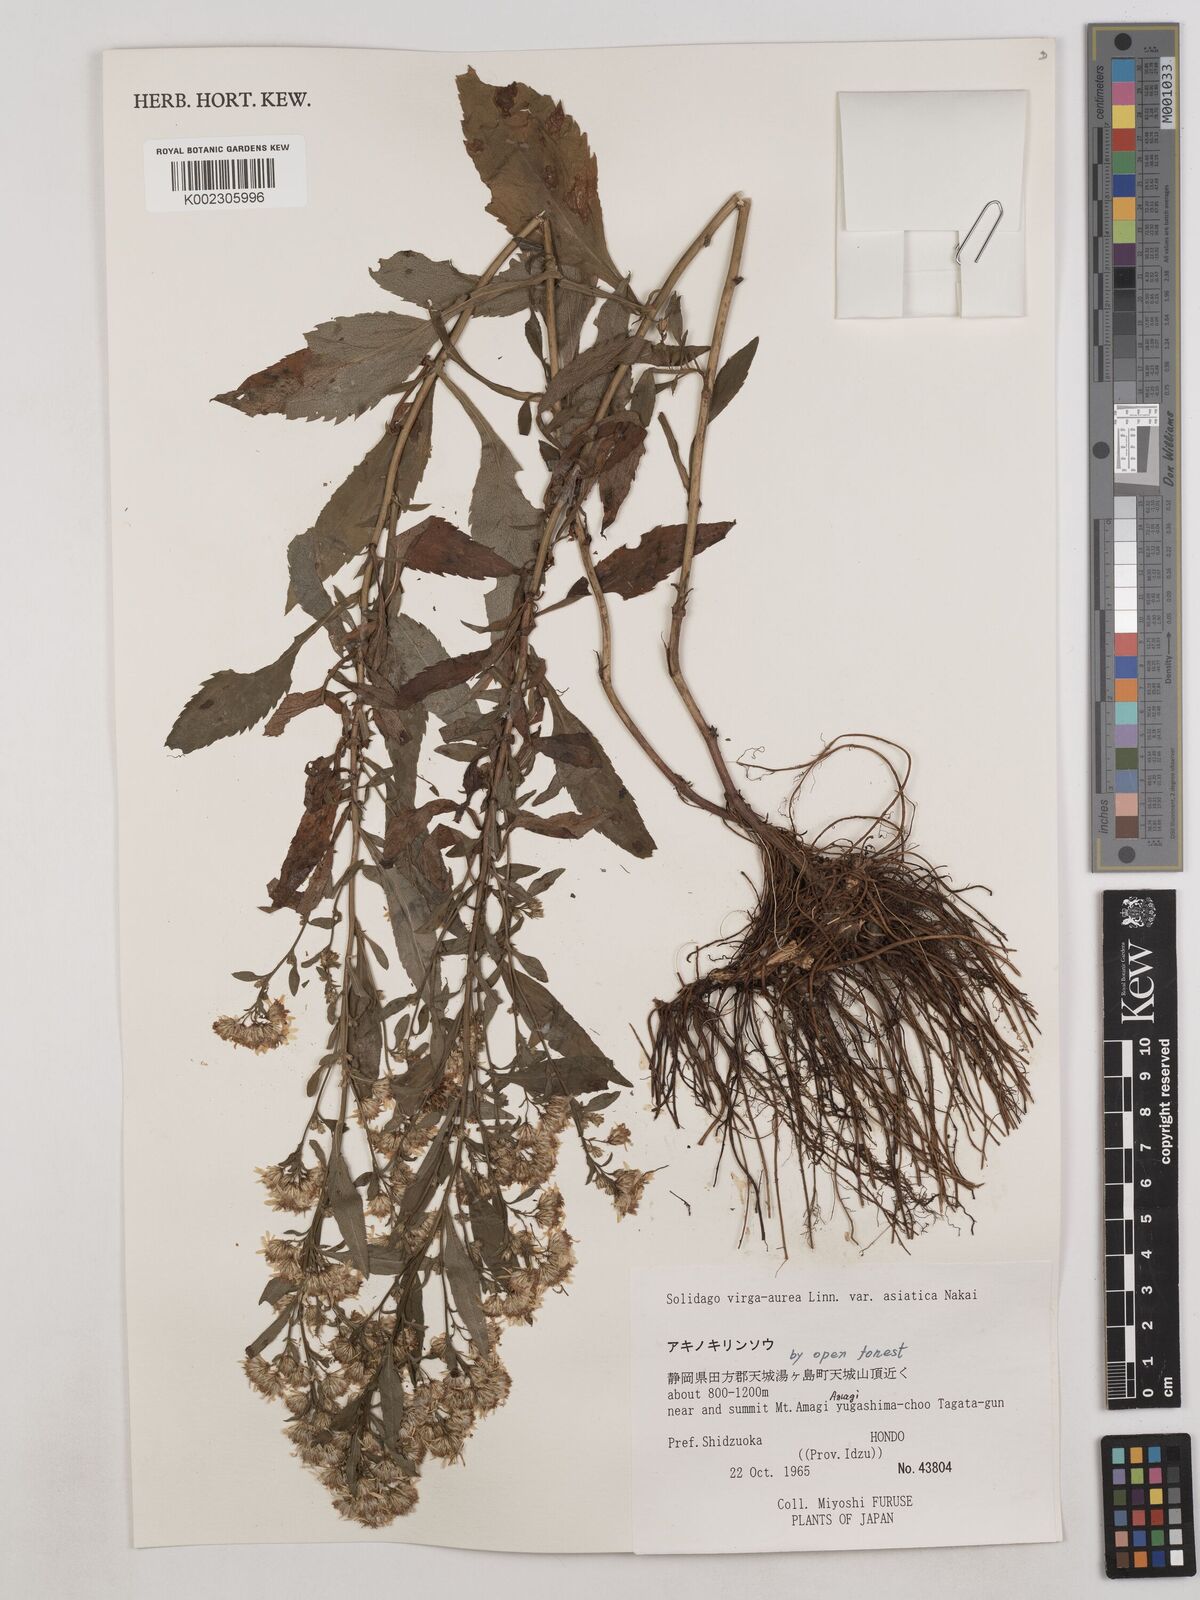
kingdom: Plantae
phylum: Tracheophyta
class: Magnoliopsida
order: Asterales
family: Asteraceae
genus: Solidago
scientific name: Solidago virgaurea
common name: Goldenrod
